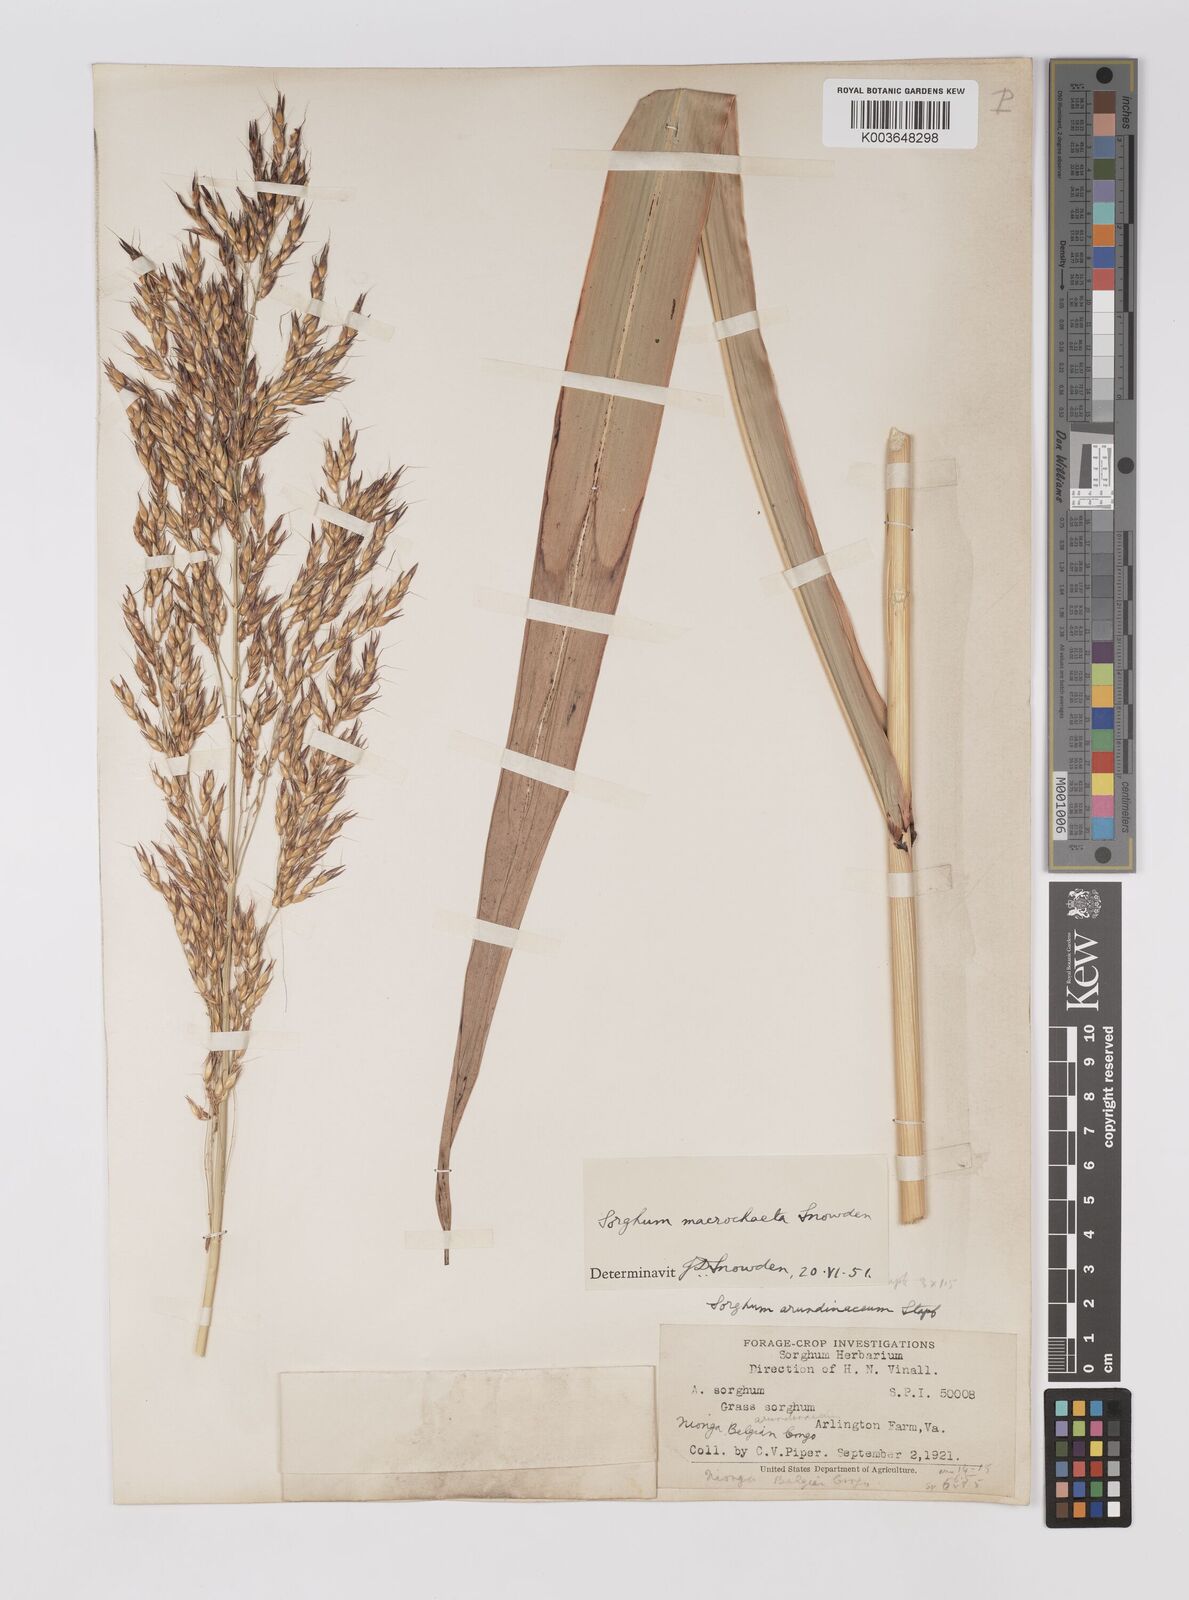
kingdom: Plantae
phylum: Tracheophyta
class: Liliopsida
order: Poales
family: Poaceae
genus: Sorghum
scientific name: Sorghum arundinaceum
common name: Sorghum
